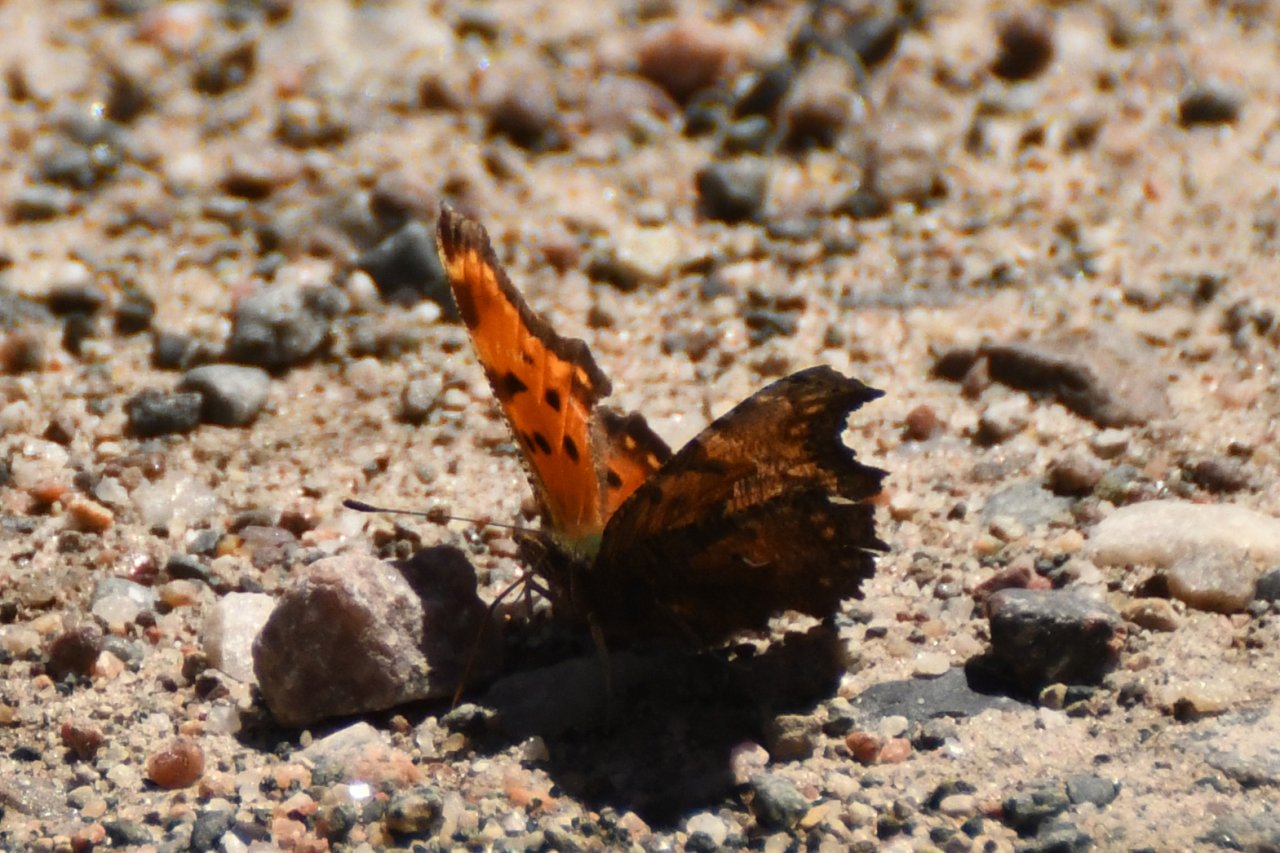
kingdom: Animalia
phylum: Arthropoda
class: Insecta
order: Lepidoptera
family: Nymphalidae
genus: Polygonia
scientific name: Polygonia progne
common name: Gray Comma
